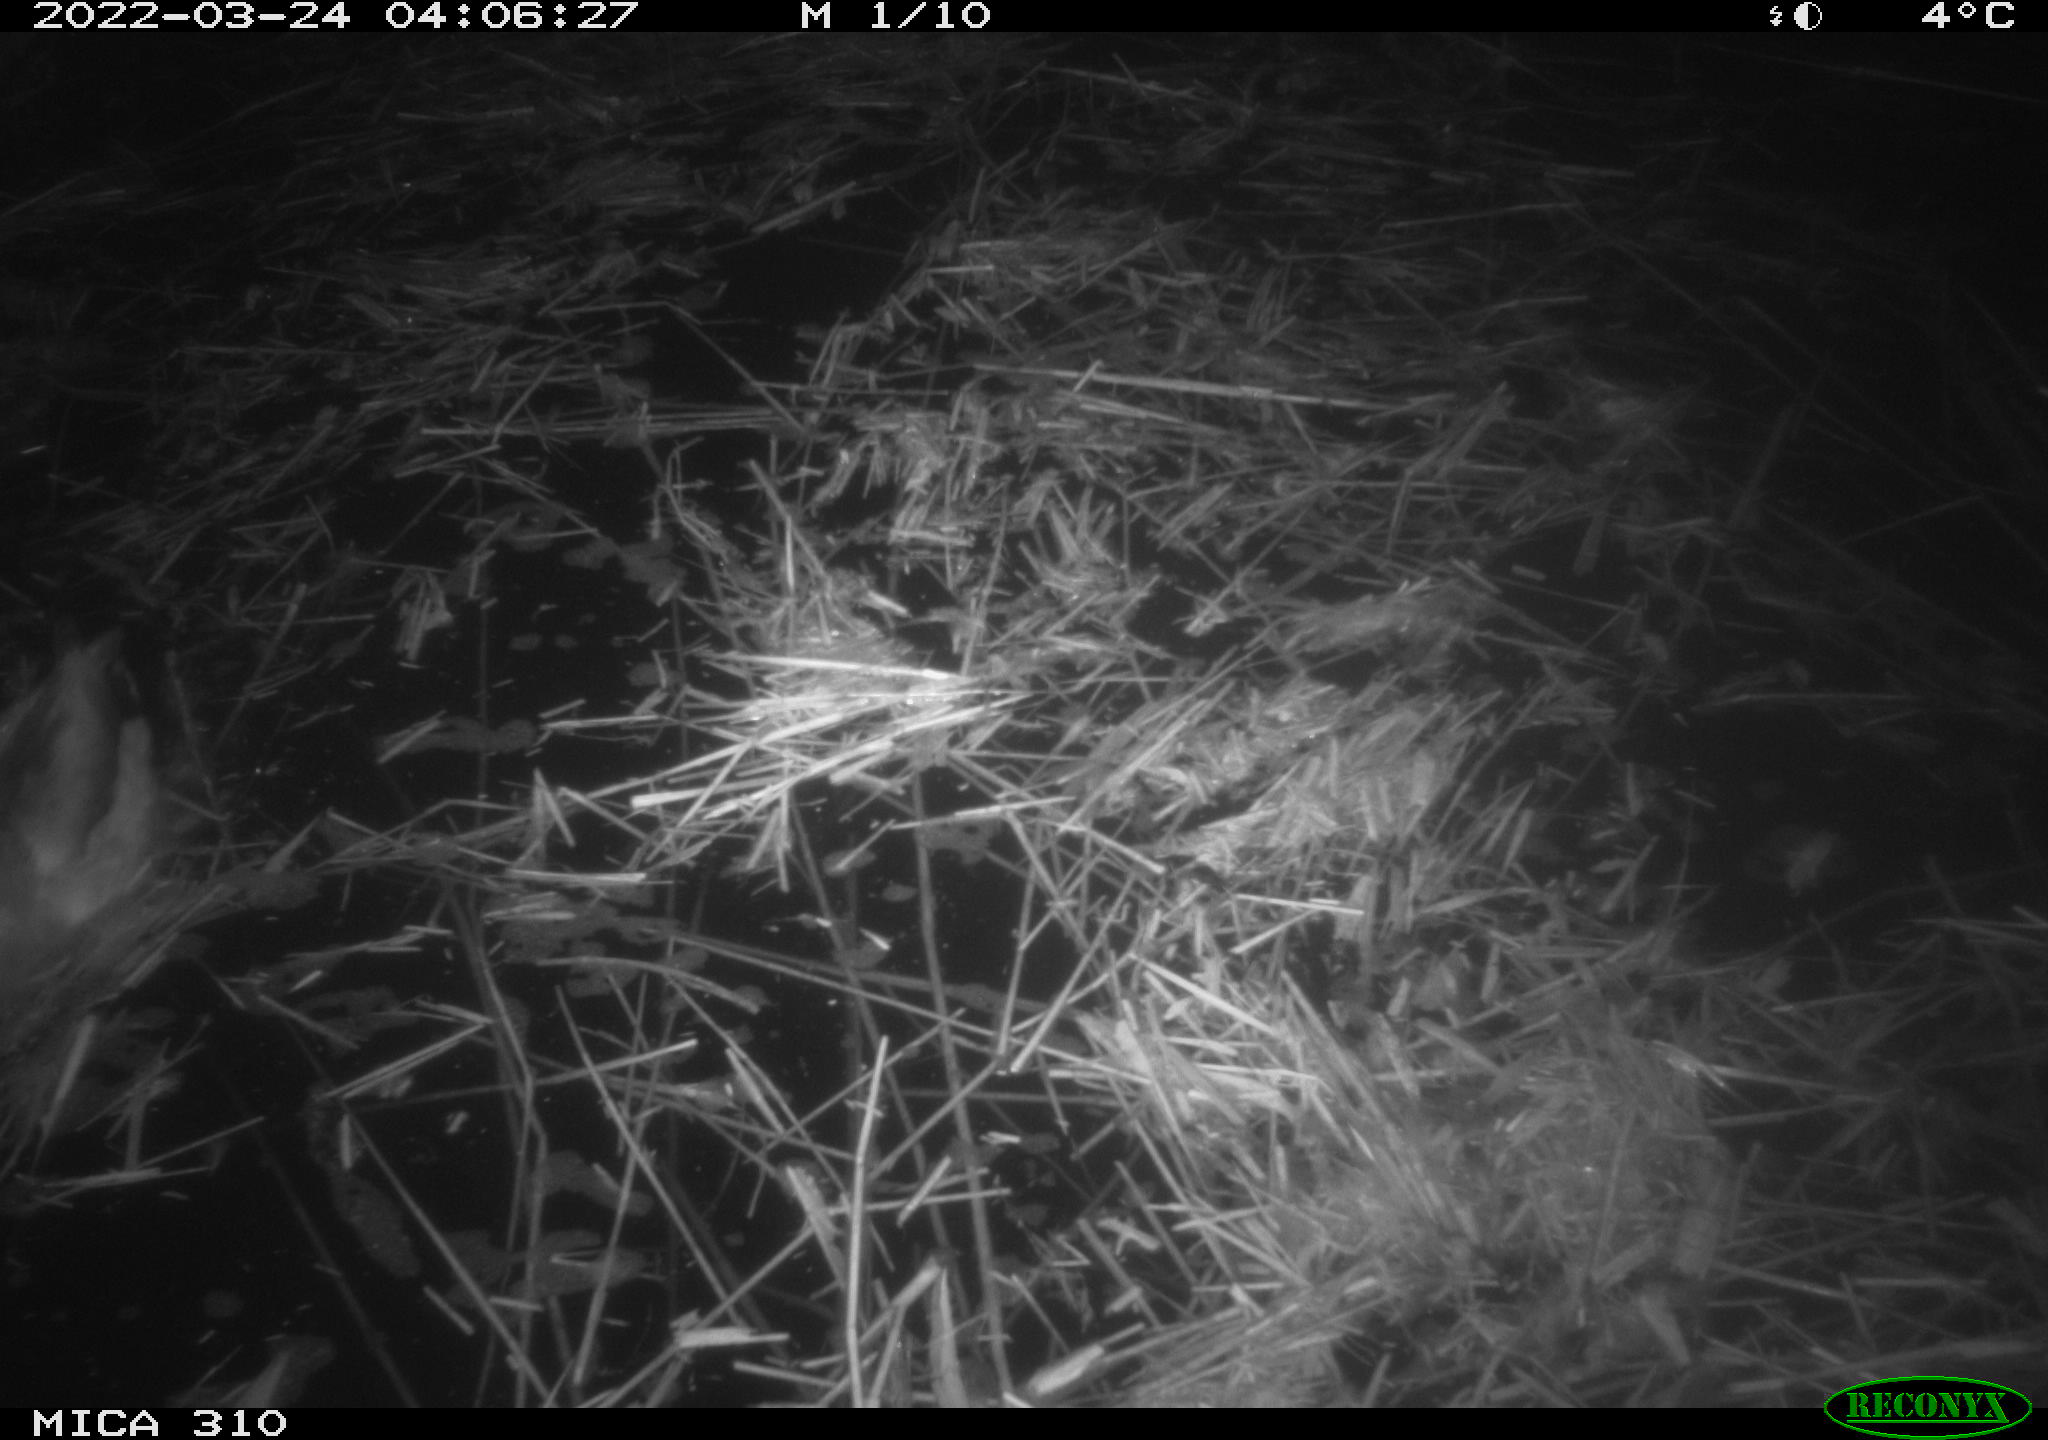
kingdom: Animalia
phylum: Chordata
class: Aves
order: Anseriformes
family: Anatidae
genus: Anas
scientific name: Anas platyrhynchos
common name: Mallard
